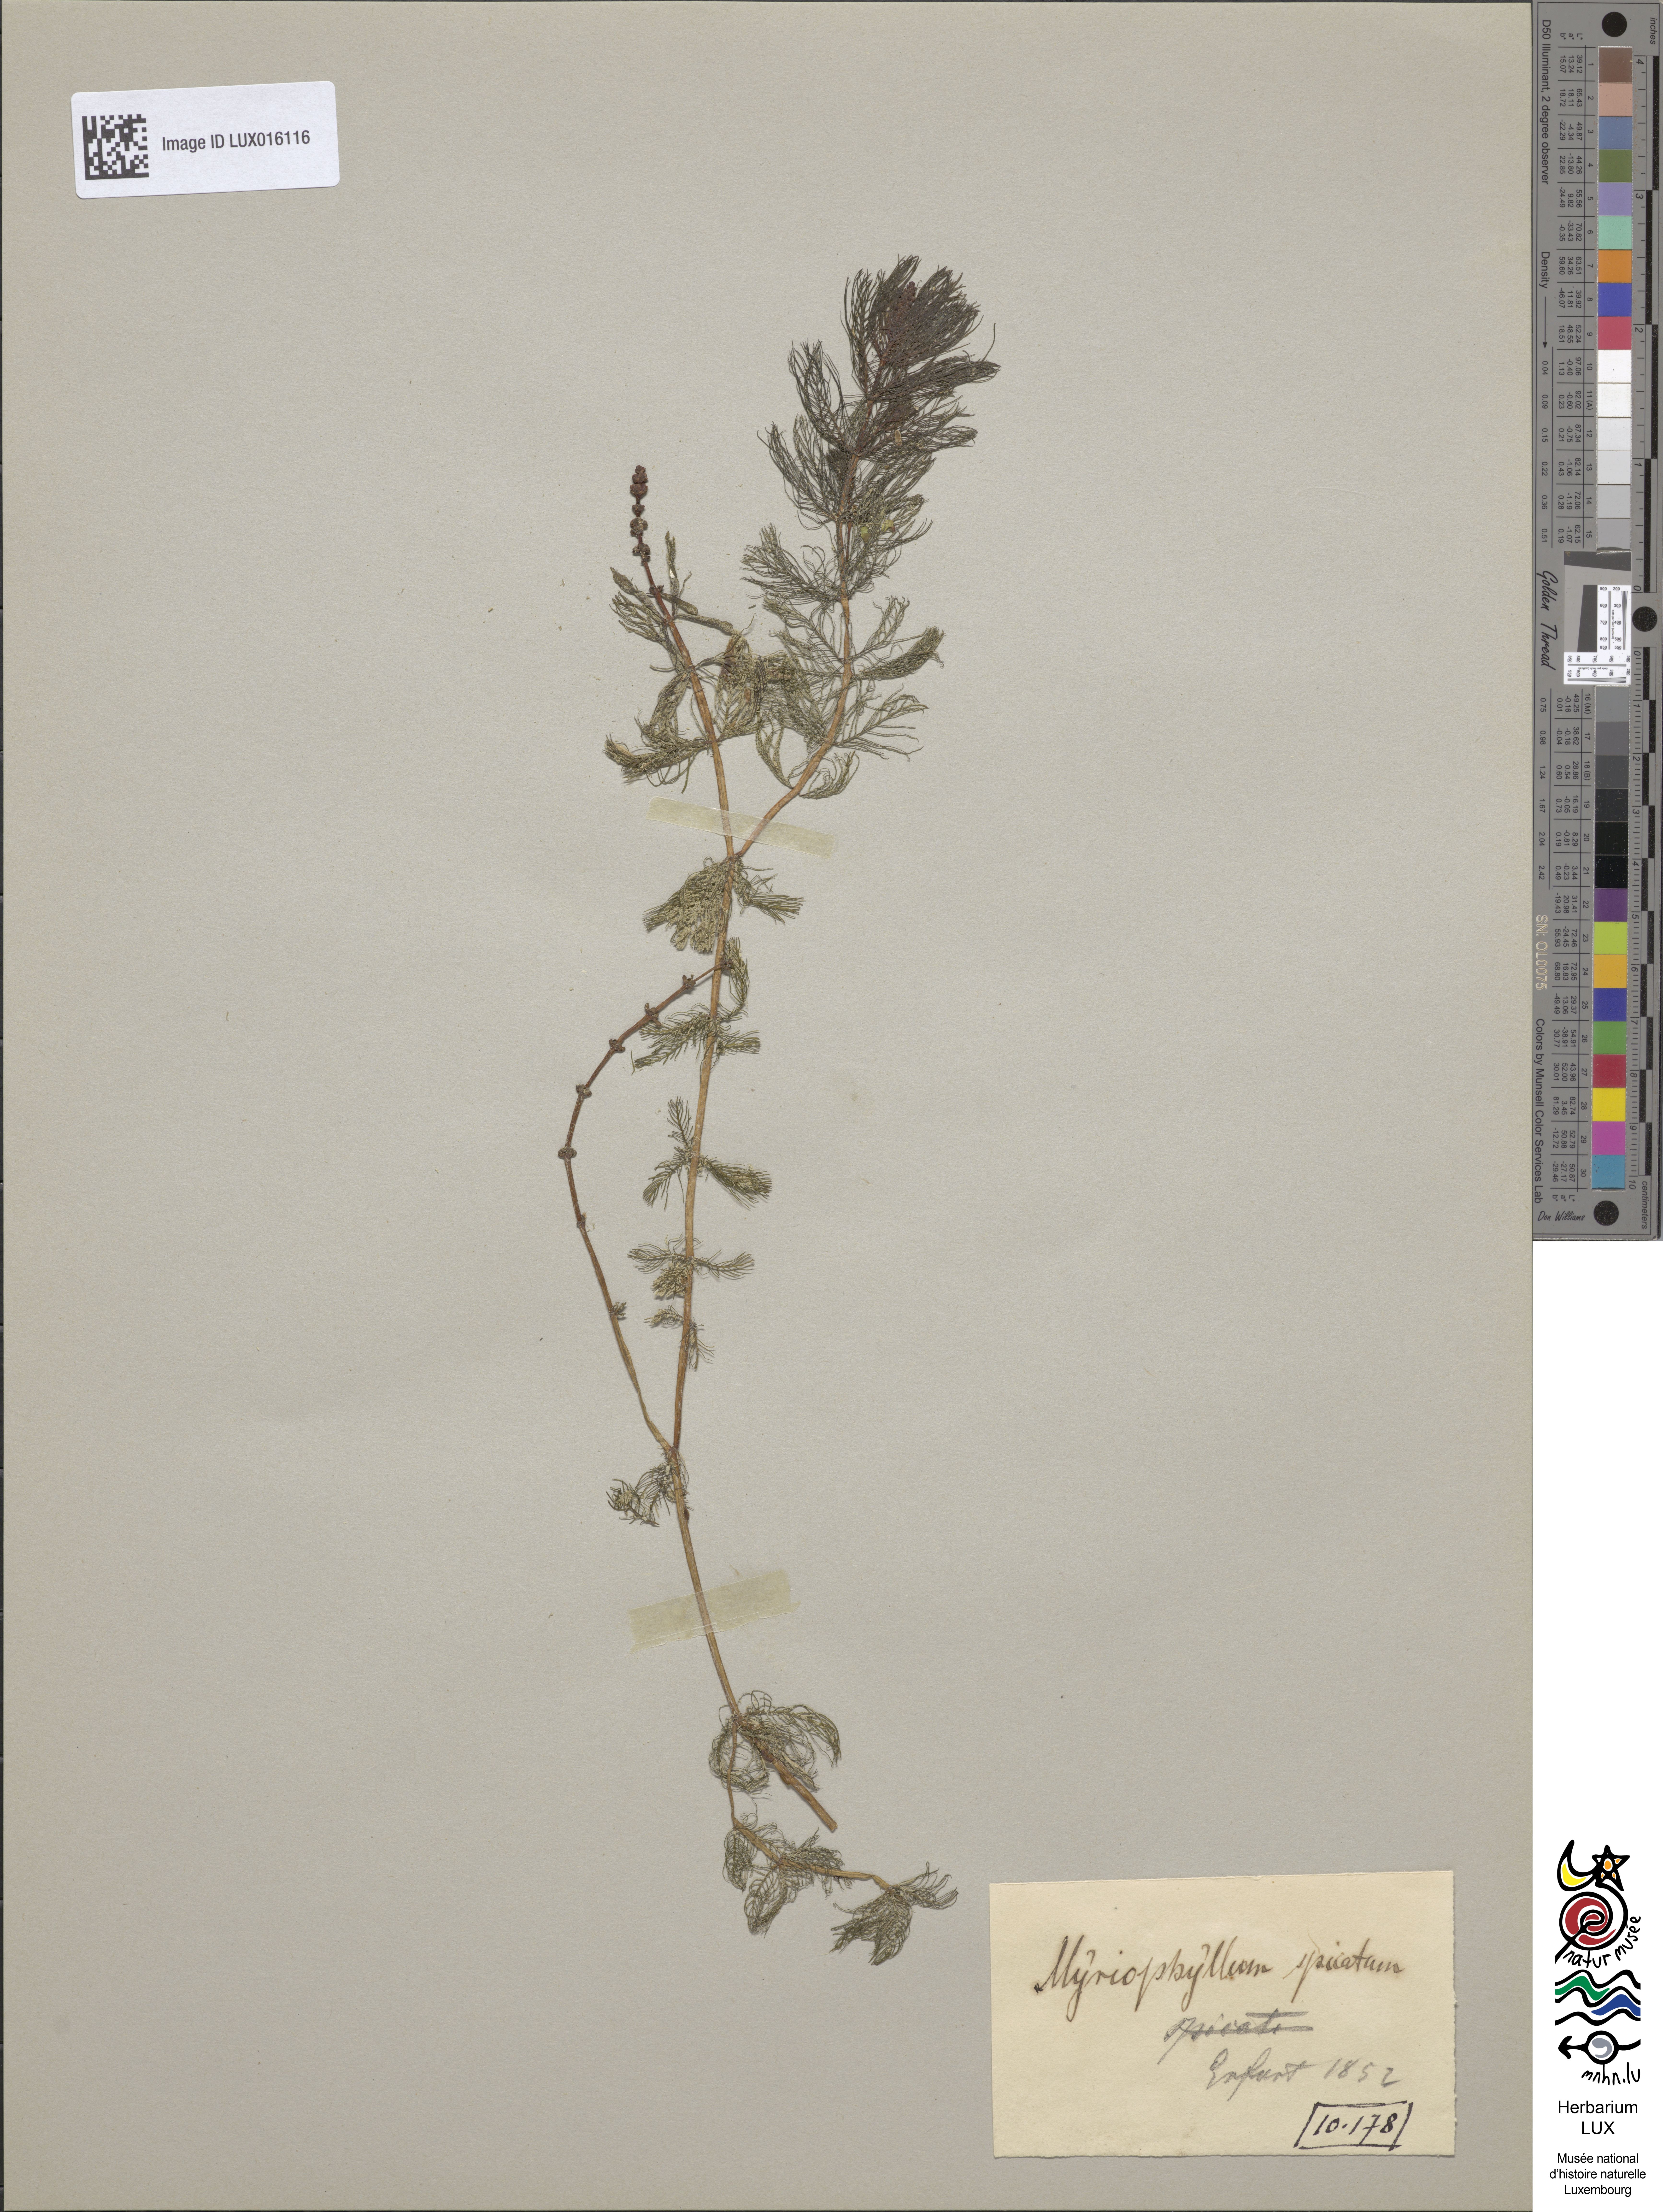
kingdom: Plantae
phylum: Tracheophyta
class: Magnoliopsida
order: Saxifragales
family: Haloragaceae
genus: Myriophyllum
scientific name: Myriophyllum spicatum
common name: Spiked water-milfoil
